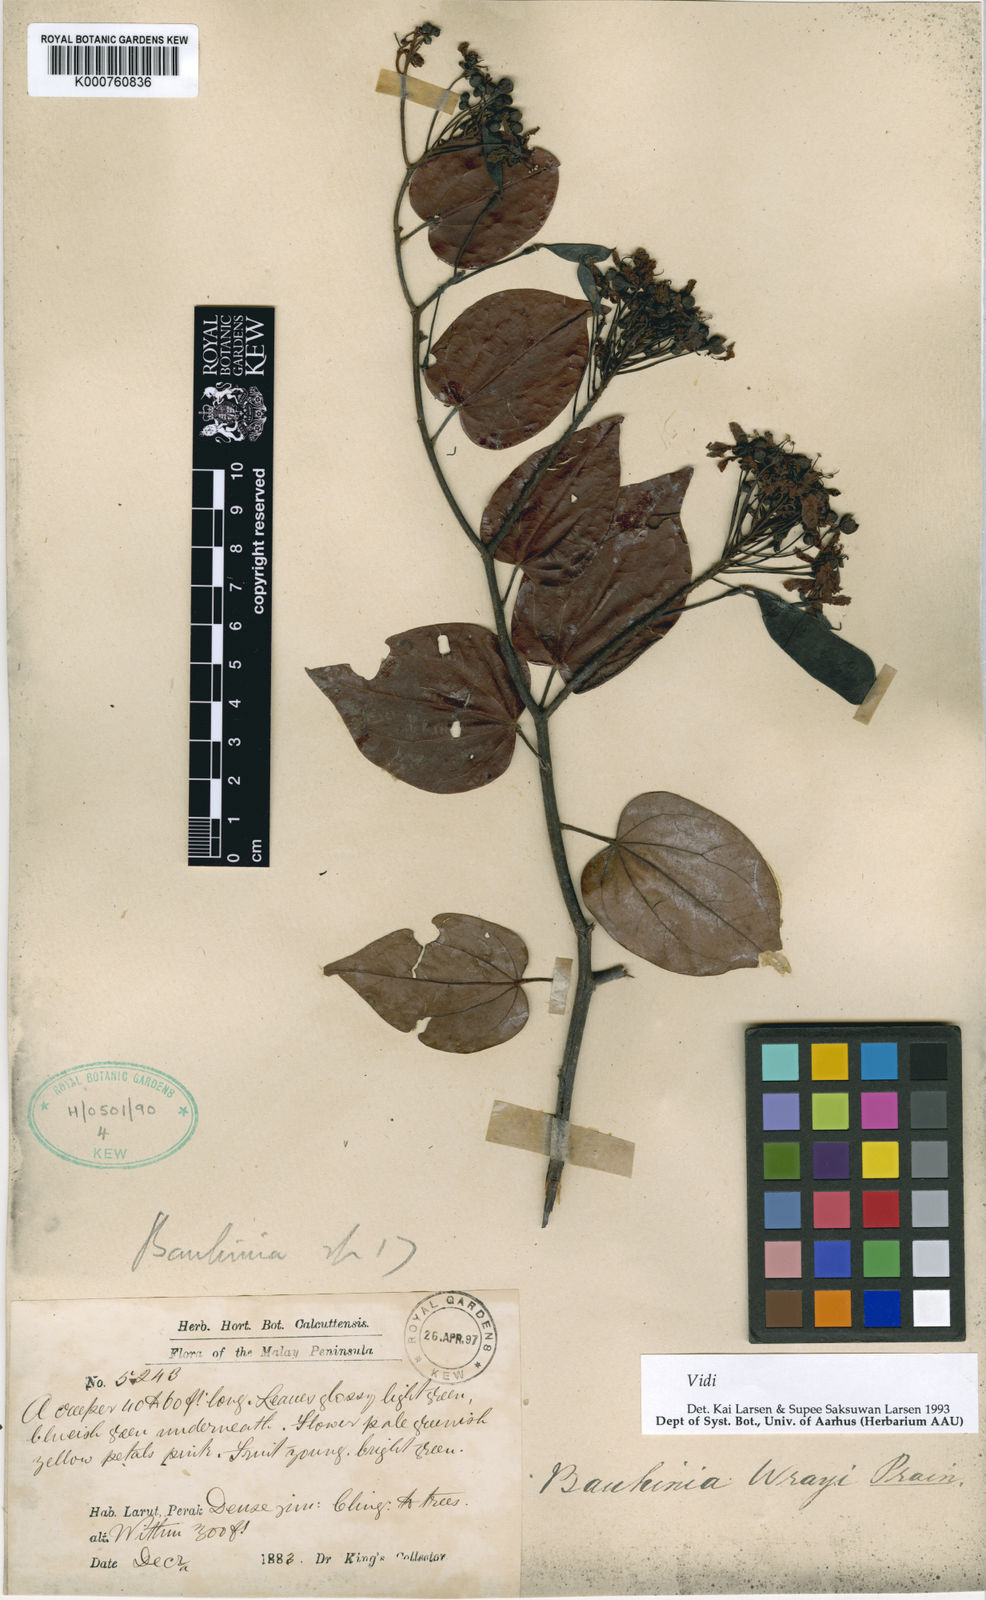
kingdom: Plantae
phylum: Tracheophyta
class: Magnoliopsida
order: Fabales
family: Fabaceae
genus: Phanera
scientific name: Phanera wrayi
